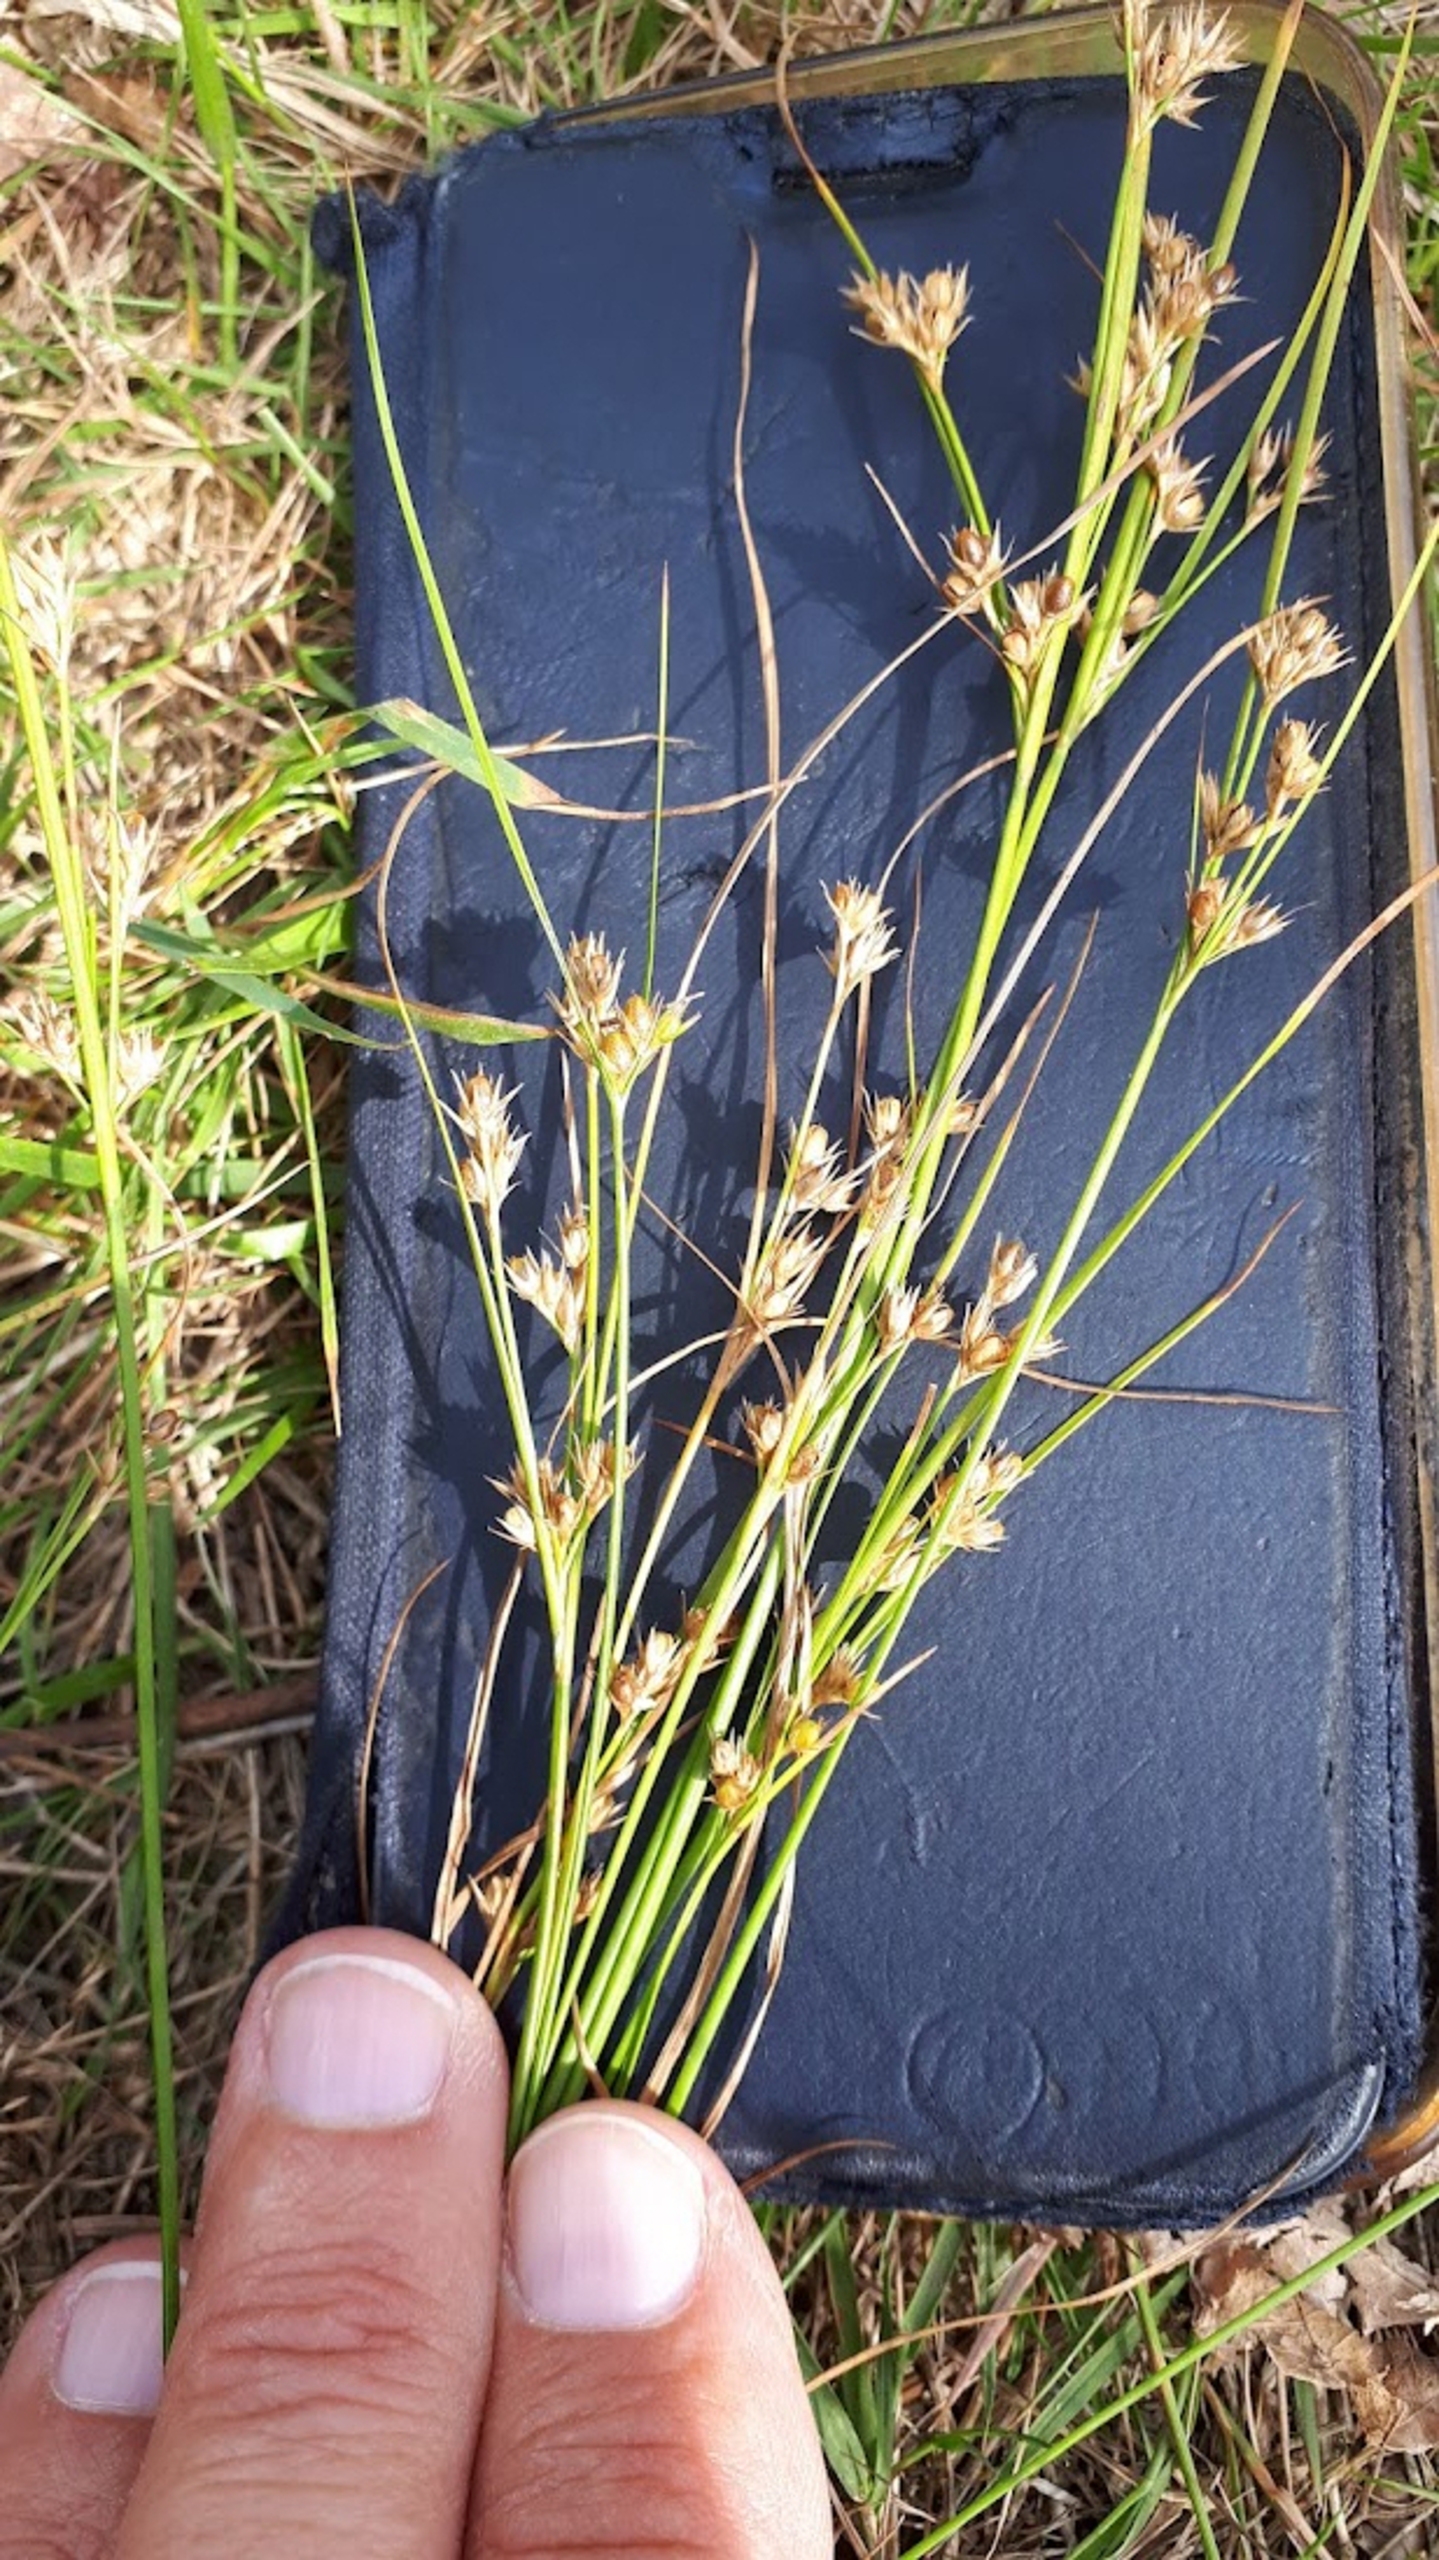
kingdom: Plantae
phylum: Tracheophyta
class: Liliopsida
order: Poales
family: Juncaceae
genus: Juncus
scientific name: Juncus tenuis
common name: Tue-siv
